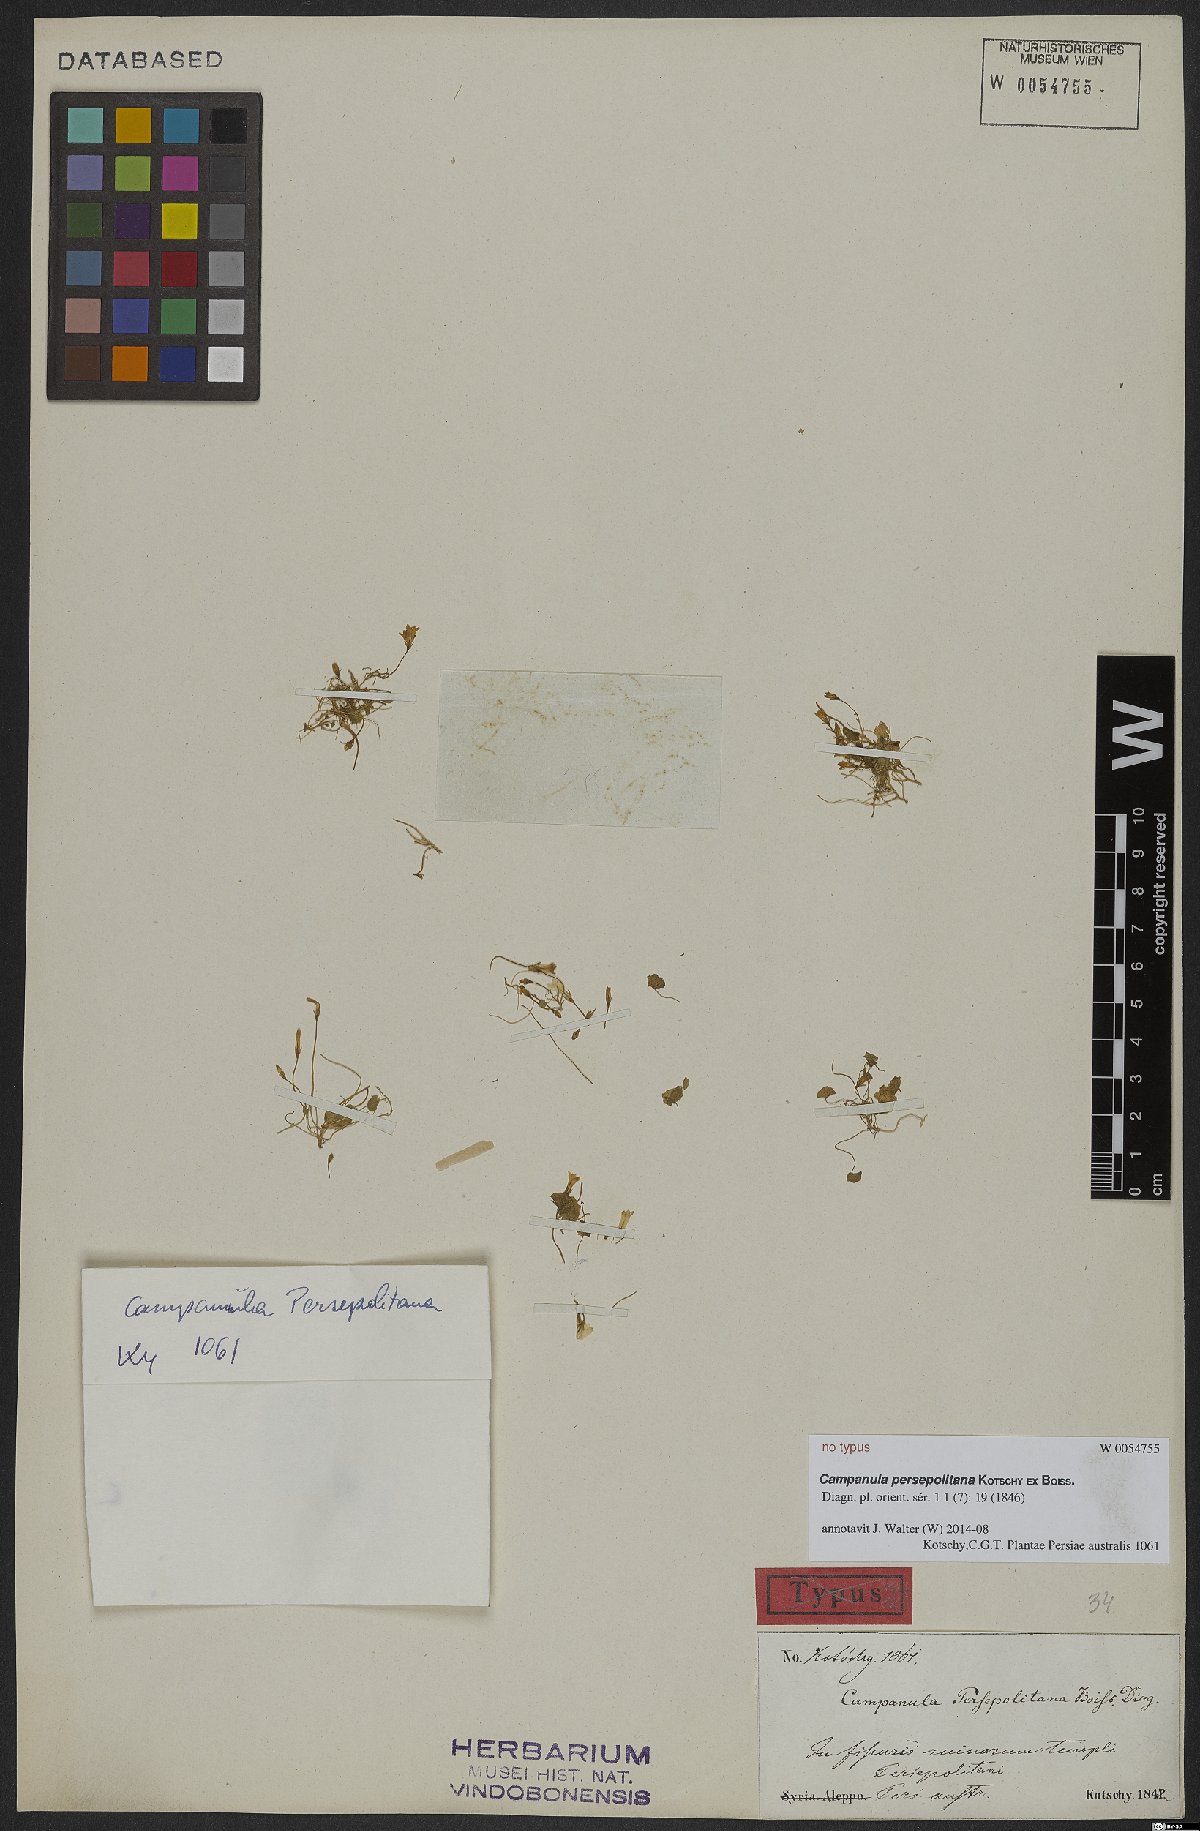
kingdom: Plantae
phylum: Tracheophyta
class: Magnoliopsida
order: Asterales
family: Campanulaceae
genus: Campanula
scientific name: Campanula persepolitana
